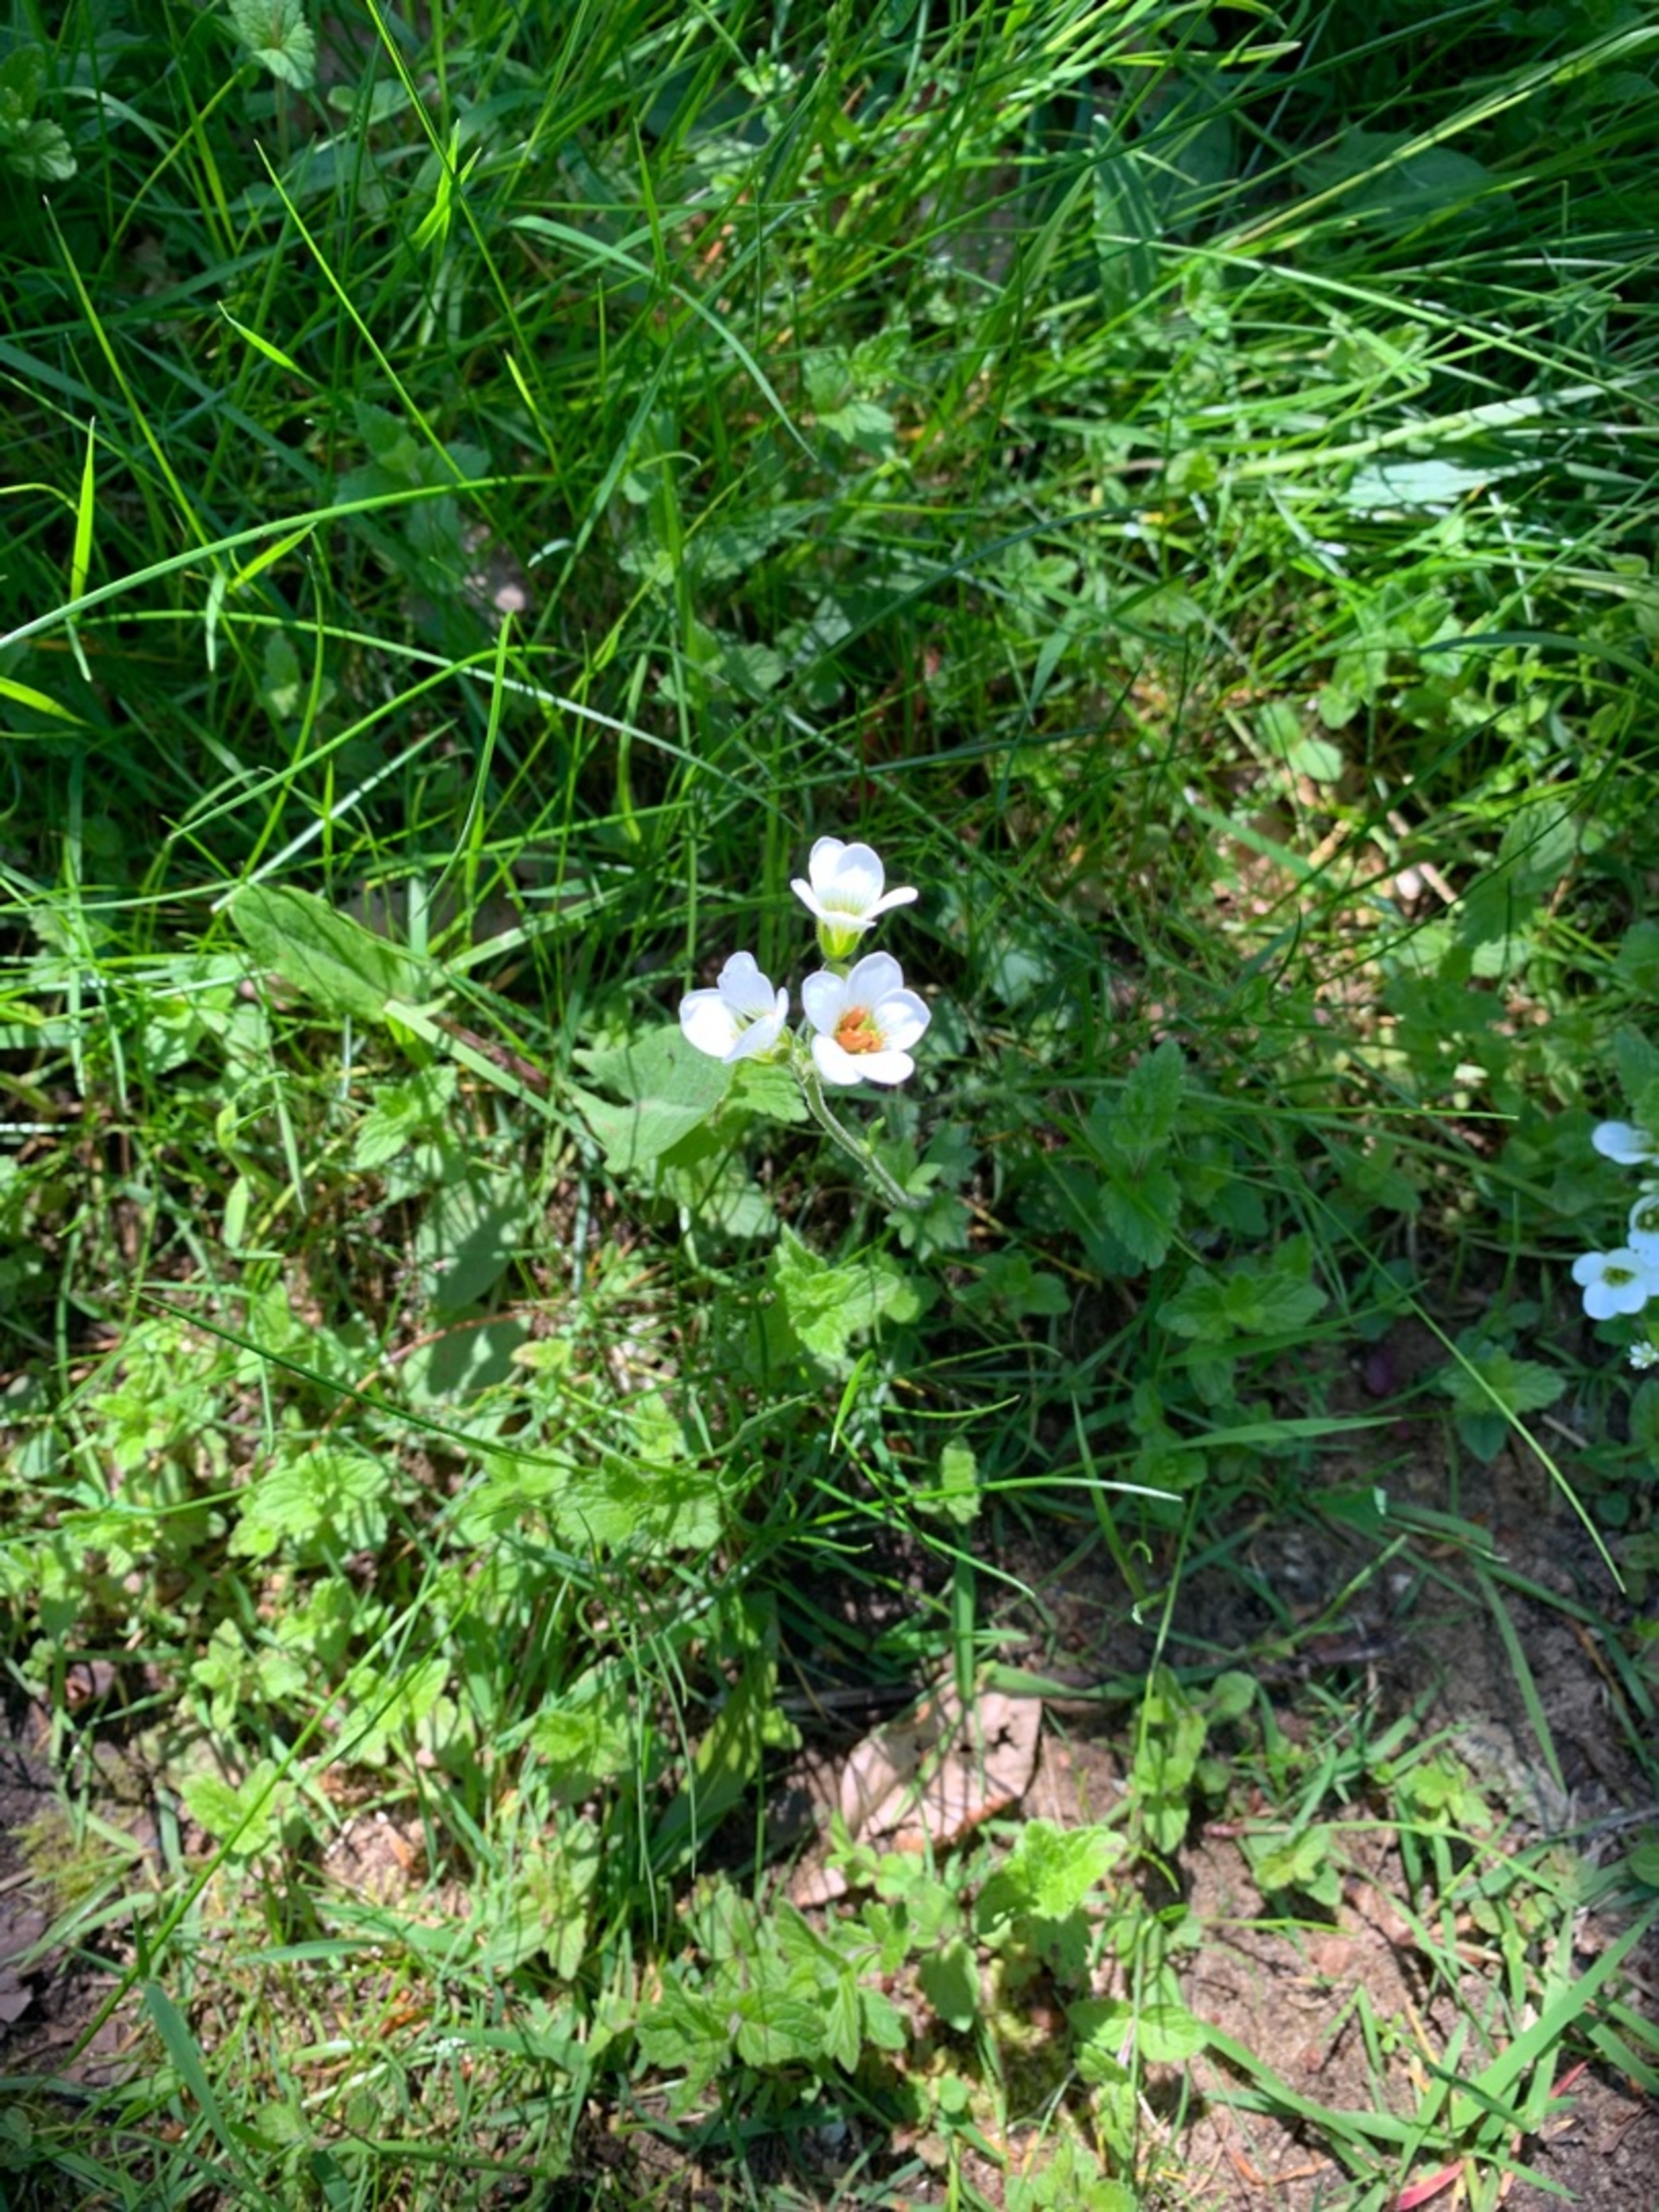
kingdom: Plantae
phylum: Tracheophyta
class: Magnoliopsida
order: Saxifragales
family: Saxifragaceae
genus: Saxifraga
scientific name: Saxifraga granulata
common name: Kornet stenbræk
